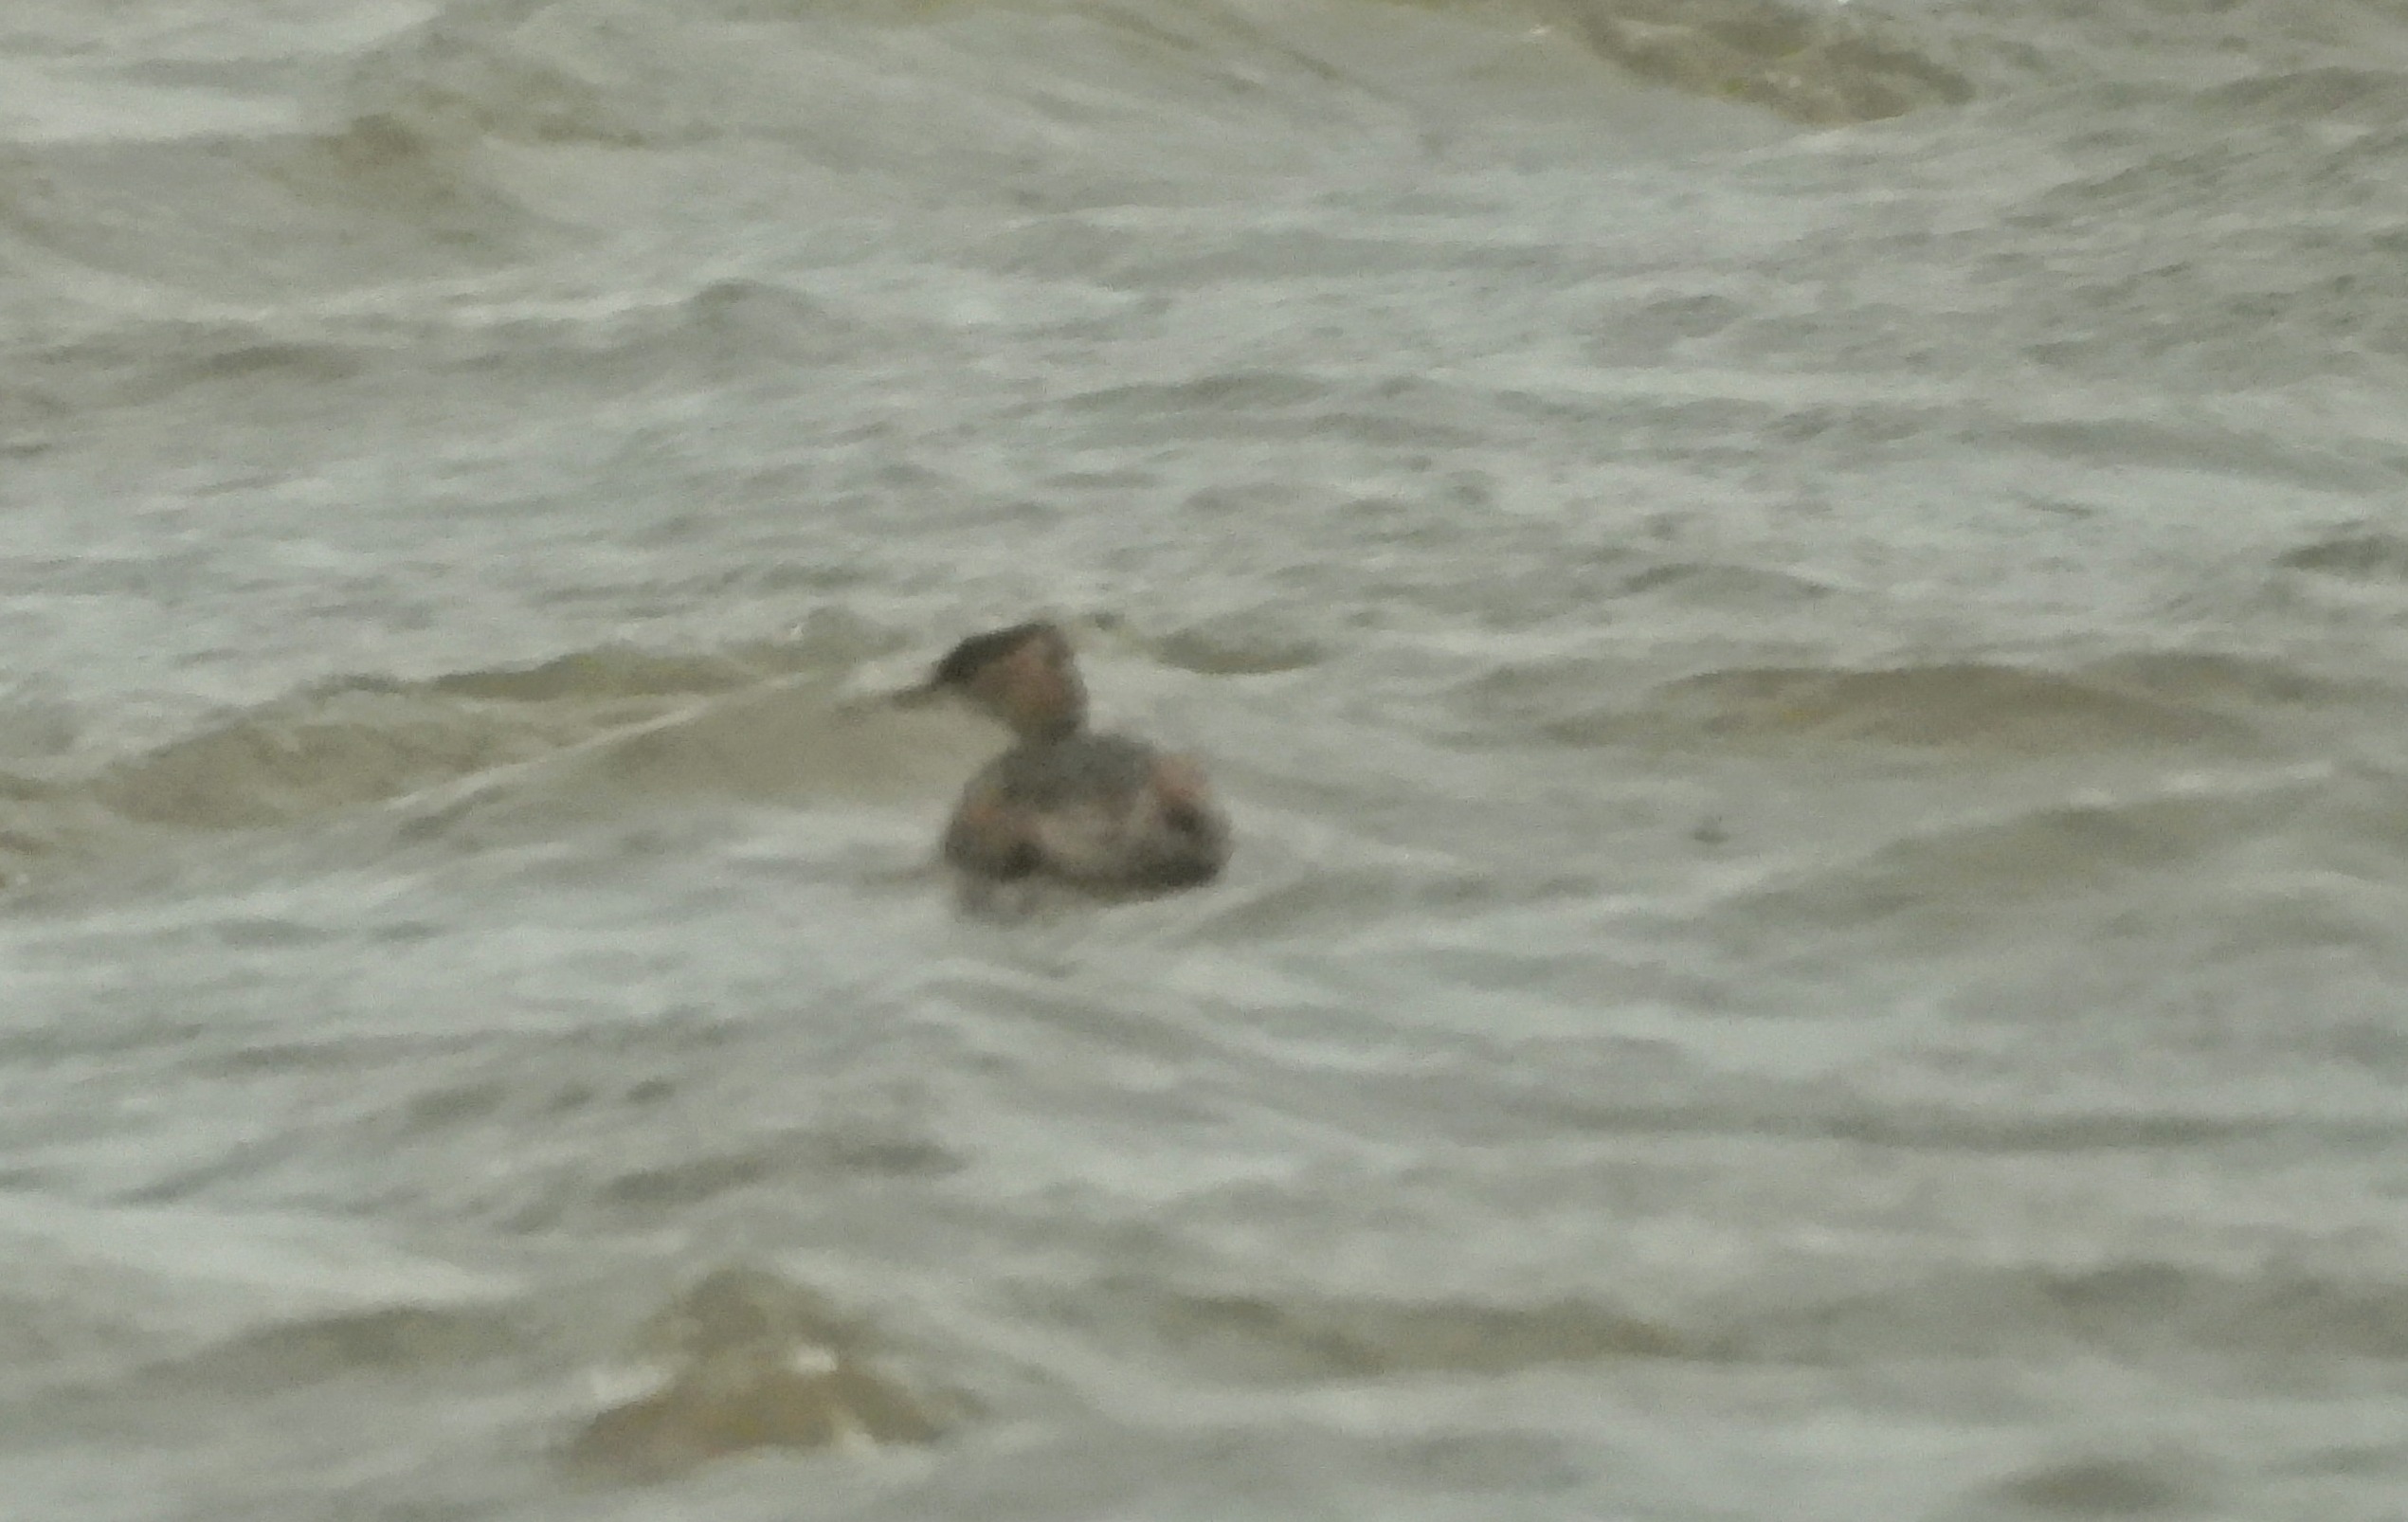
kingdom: Animalia
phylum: Chordata
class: Aves
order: Podicipediformes
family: Podicipedidae
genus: Tachybaptus
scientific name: Tachybaptus ruficollis
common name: Lille lappedykker
